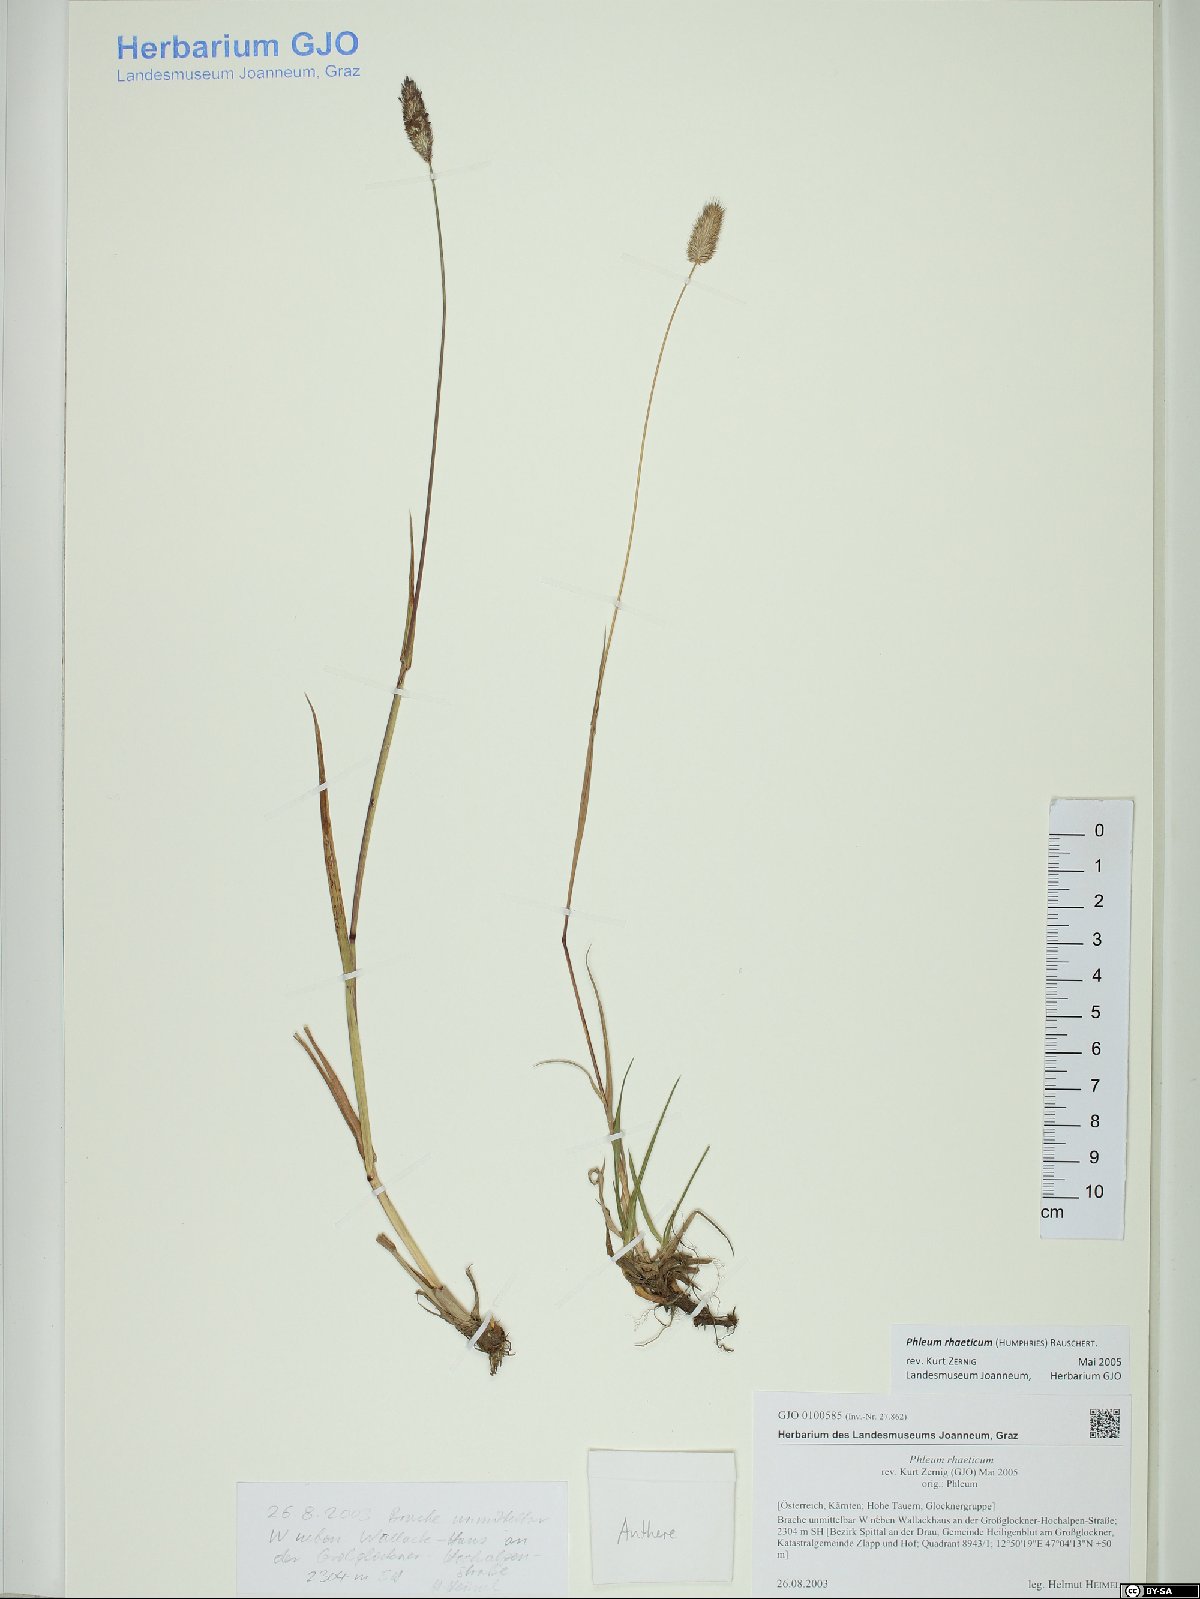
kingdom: Plantae
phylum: Tracheophyta
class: Liliopsida
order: Poales
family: Poaceae
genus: Phleum
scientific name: Phleum alpinum
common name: Alpine cat's-tail
